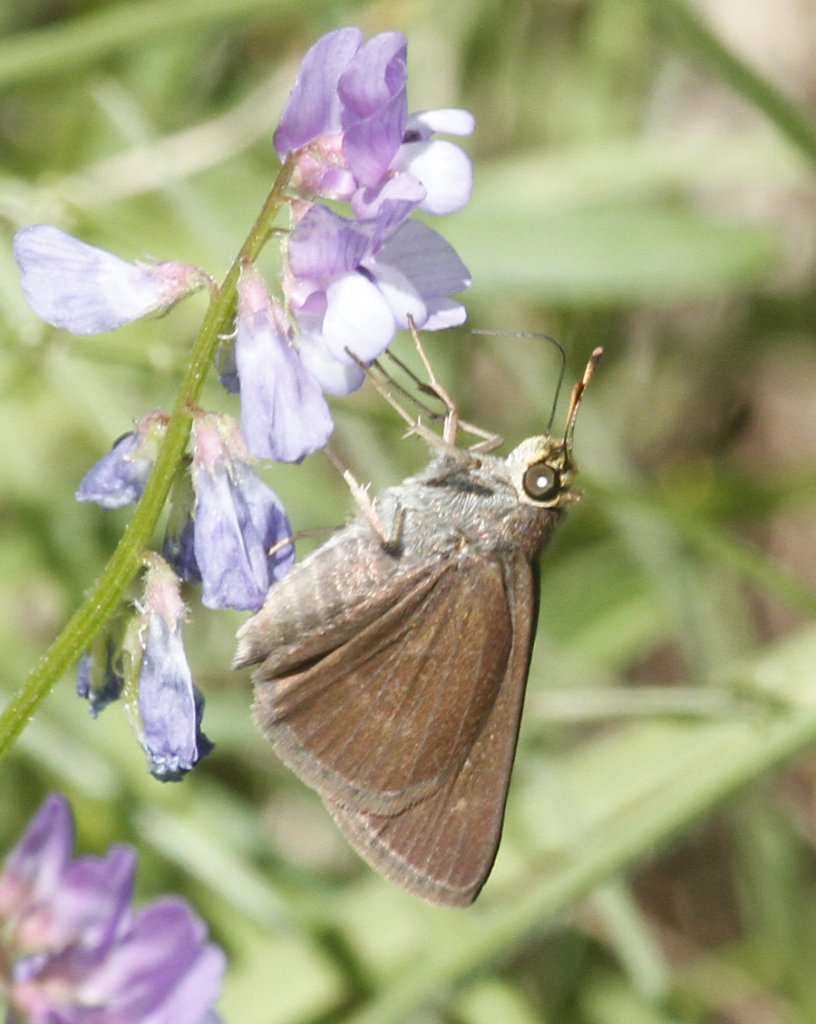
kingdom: Animalia
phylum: Arthropoda
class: Insecta
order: Lepidoptera
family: Hesperiidae
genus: Euphyes
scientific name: Euphyes vestris
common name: Dun Skipper
